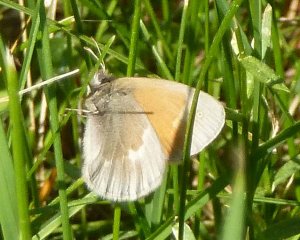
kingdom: Animalia
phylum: Arthropoda
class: Insecta
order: Lepidoptera
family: Nymphalidae
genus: Coenonympha
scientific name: Coenonympha tullia
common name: Large Heath
